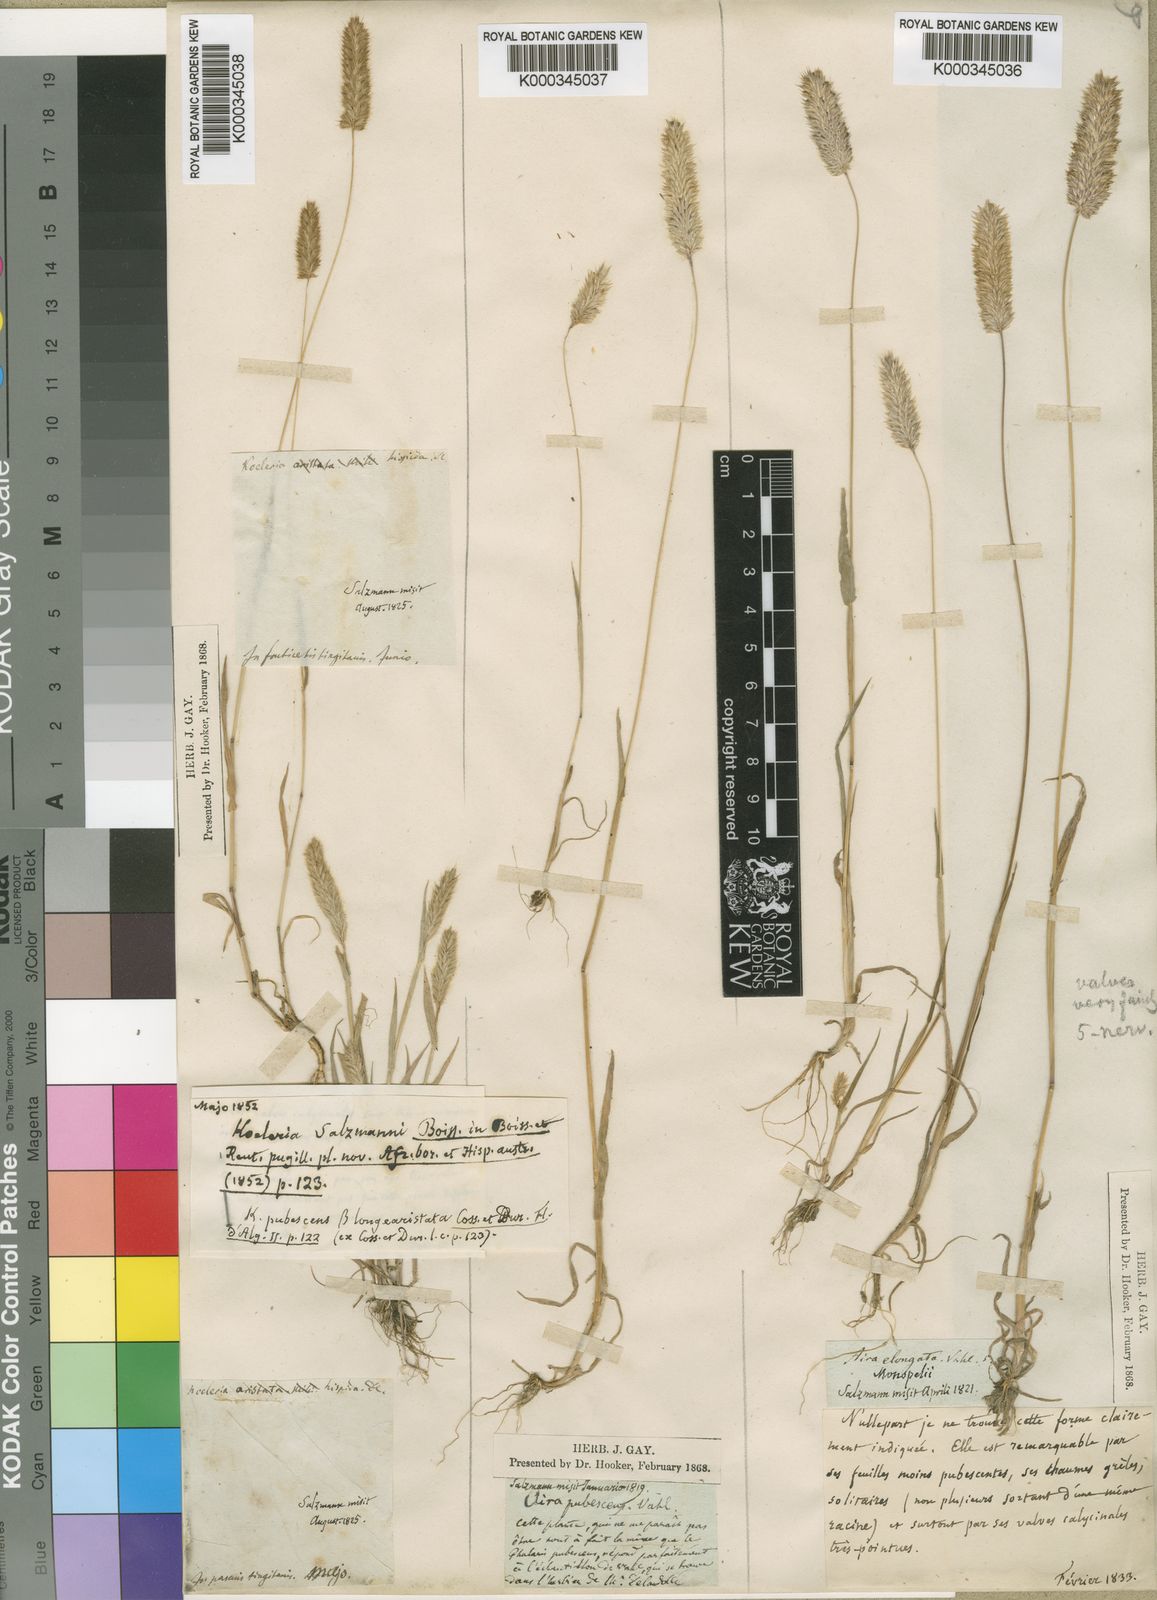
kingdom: Plantae
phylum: Tracheophyta
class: Liliopsida
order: Poales
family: Poaceae
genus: Rostraria
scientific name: Rostraria salzmannii
